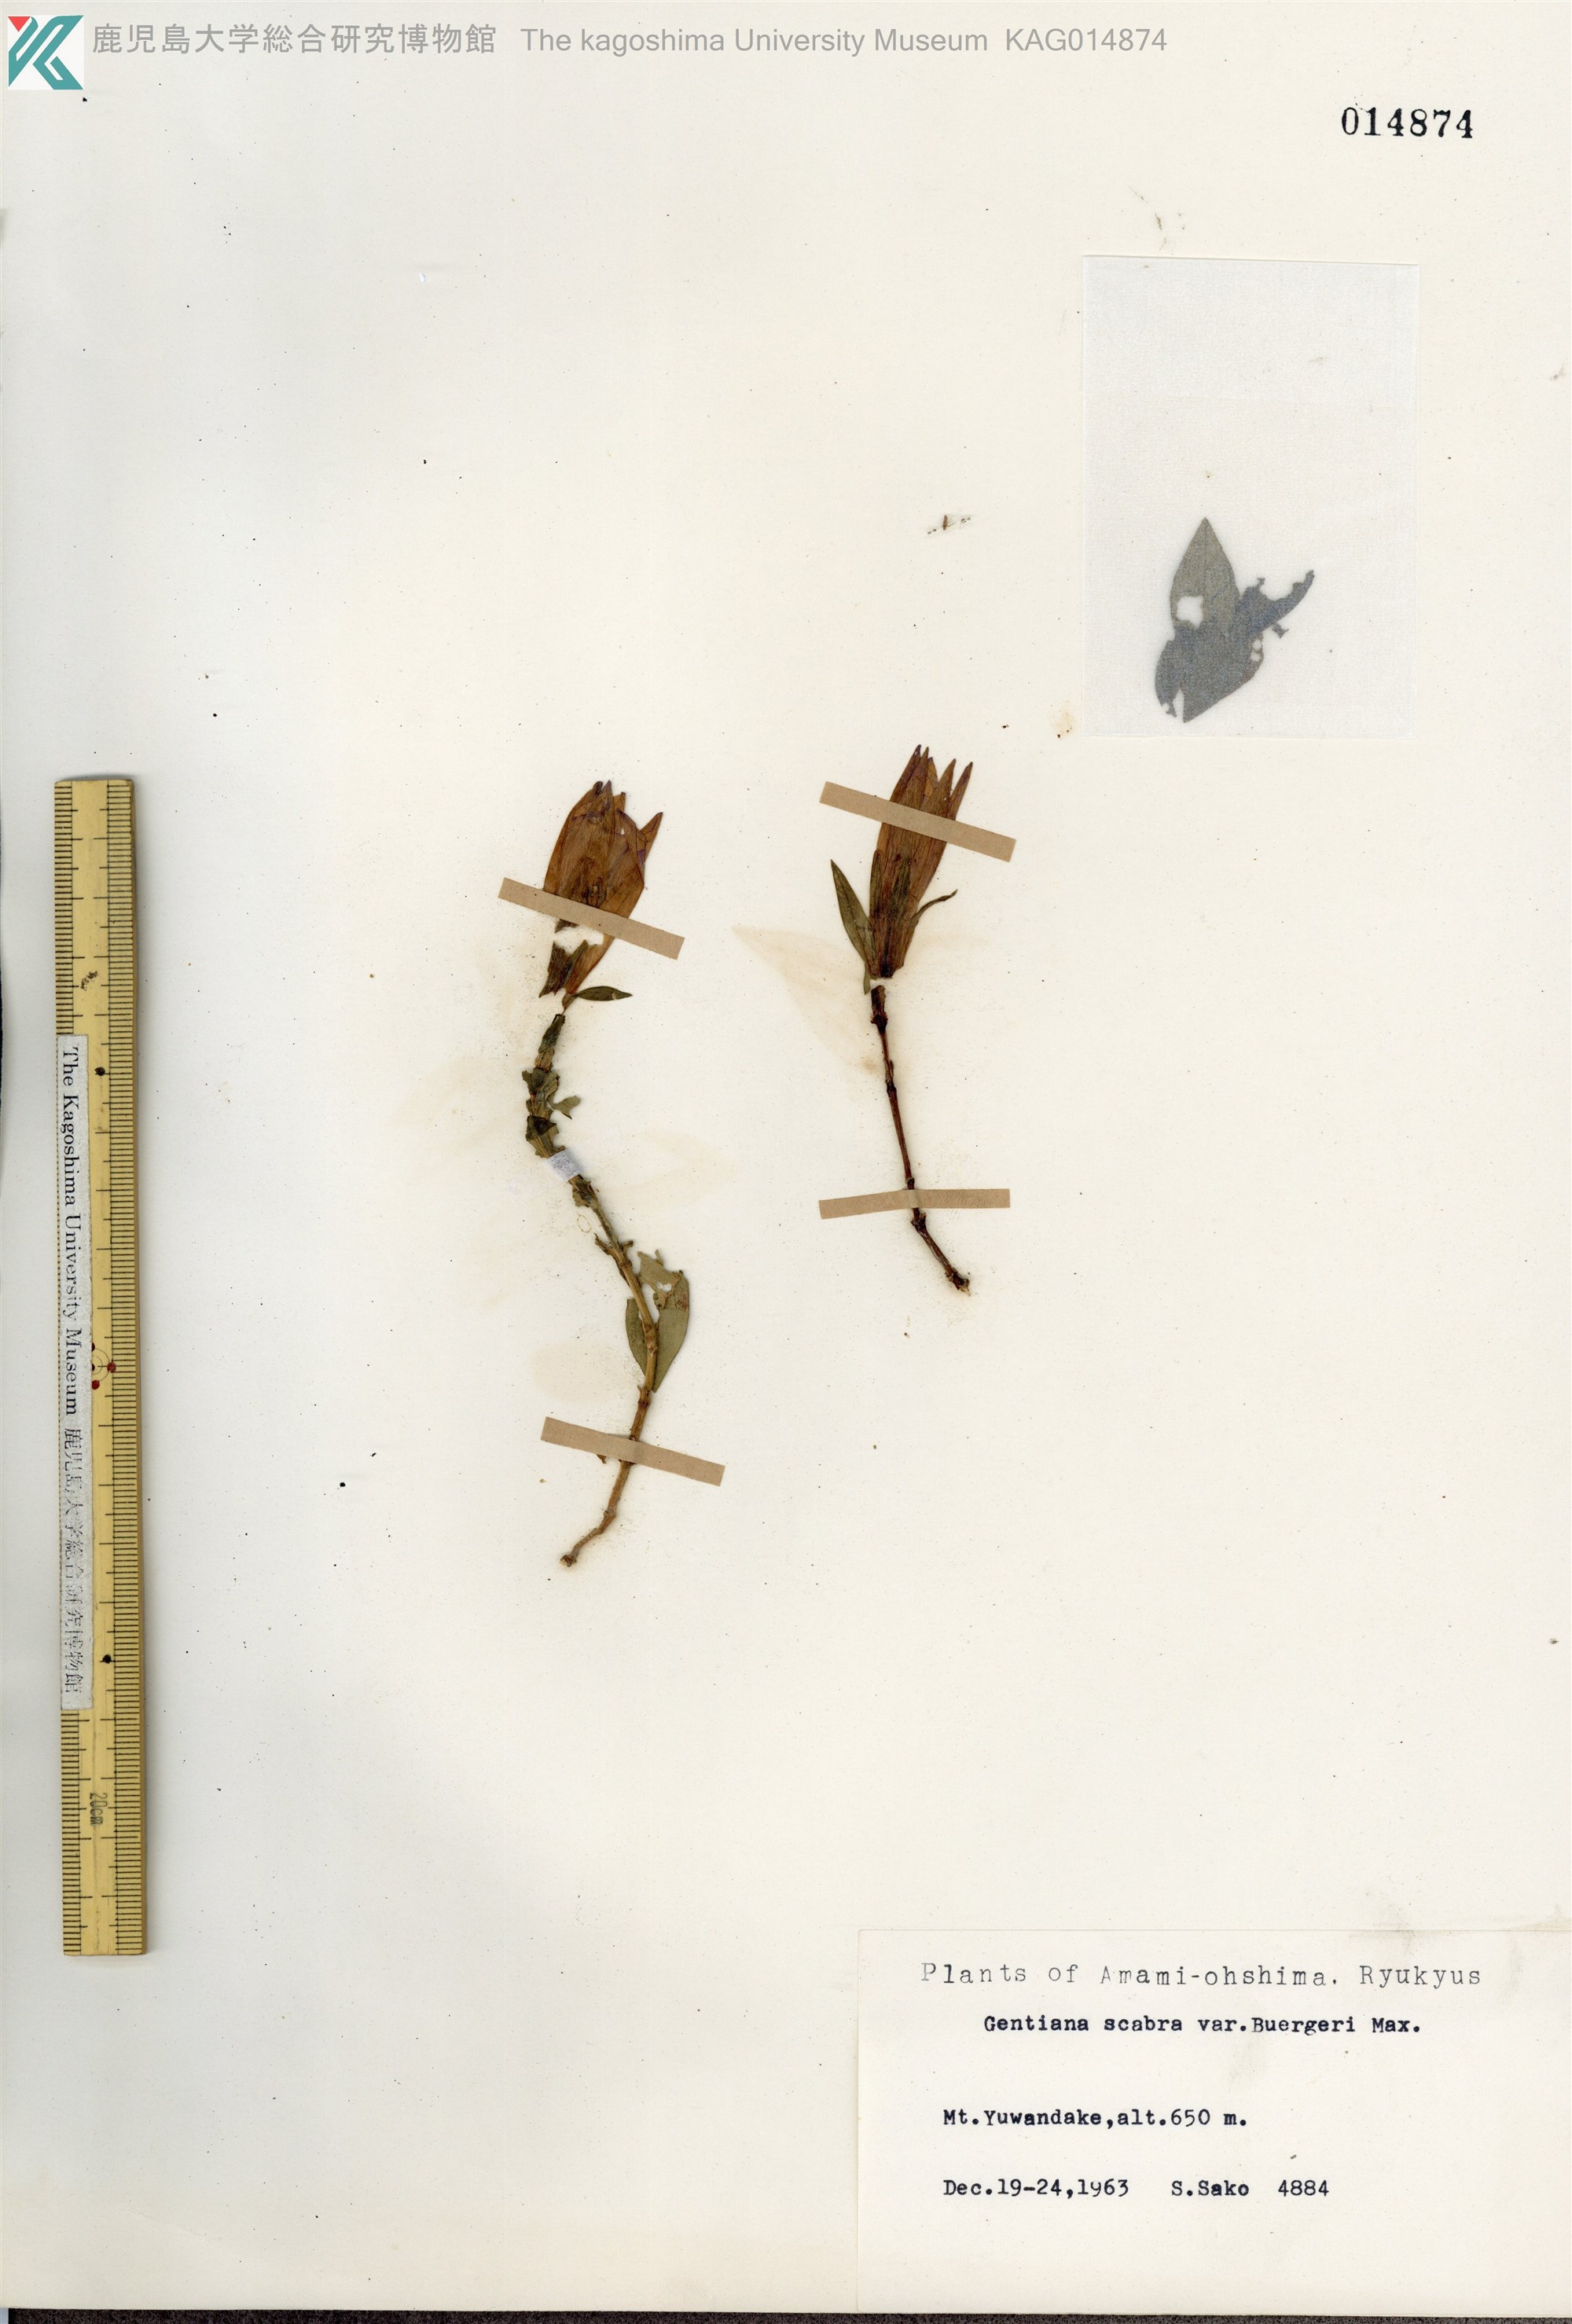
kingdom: Plantae
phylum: Tracheophyta
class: Magnoliopsida
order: Gentianales
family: Gentianaceae
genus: Gentiana
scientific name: Gentiana scabra
